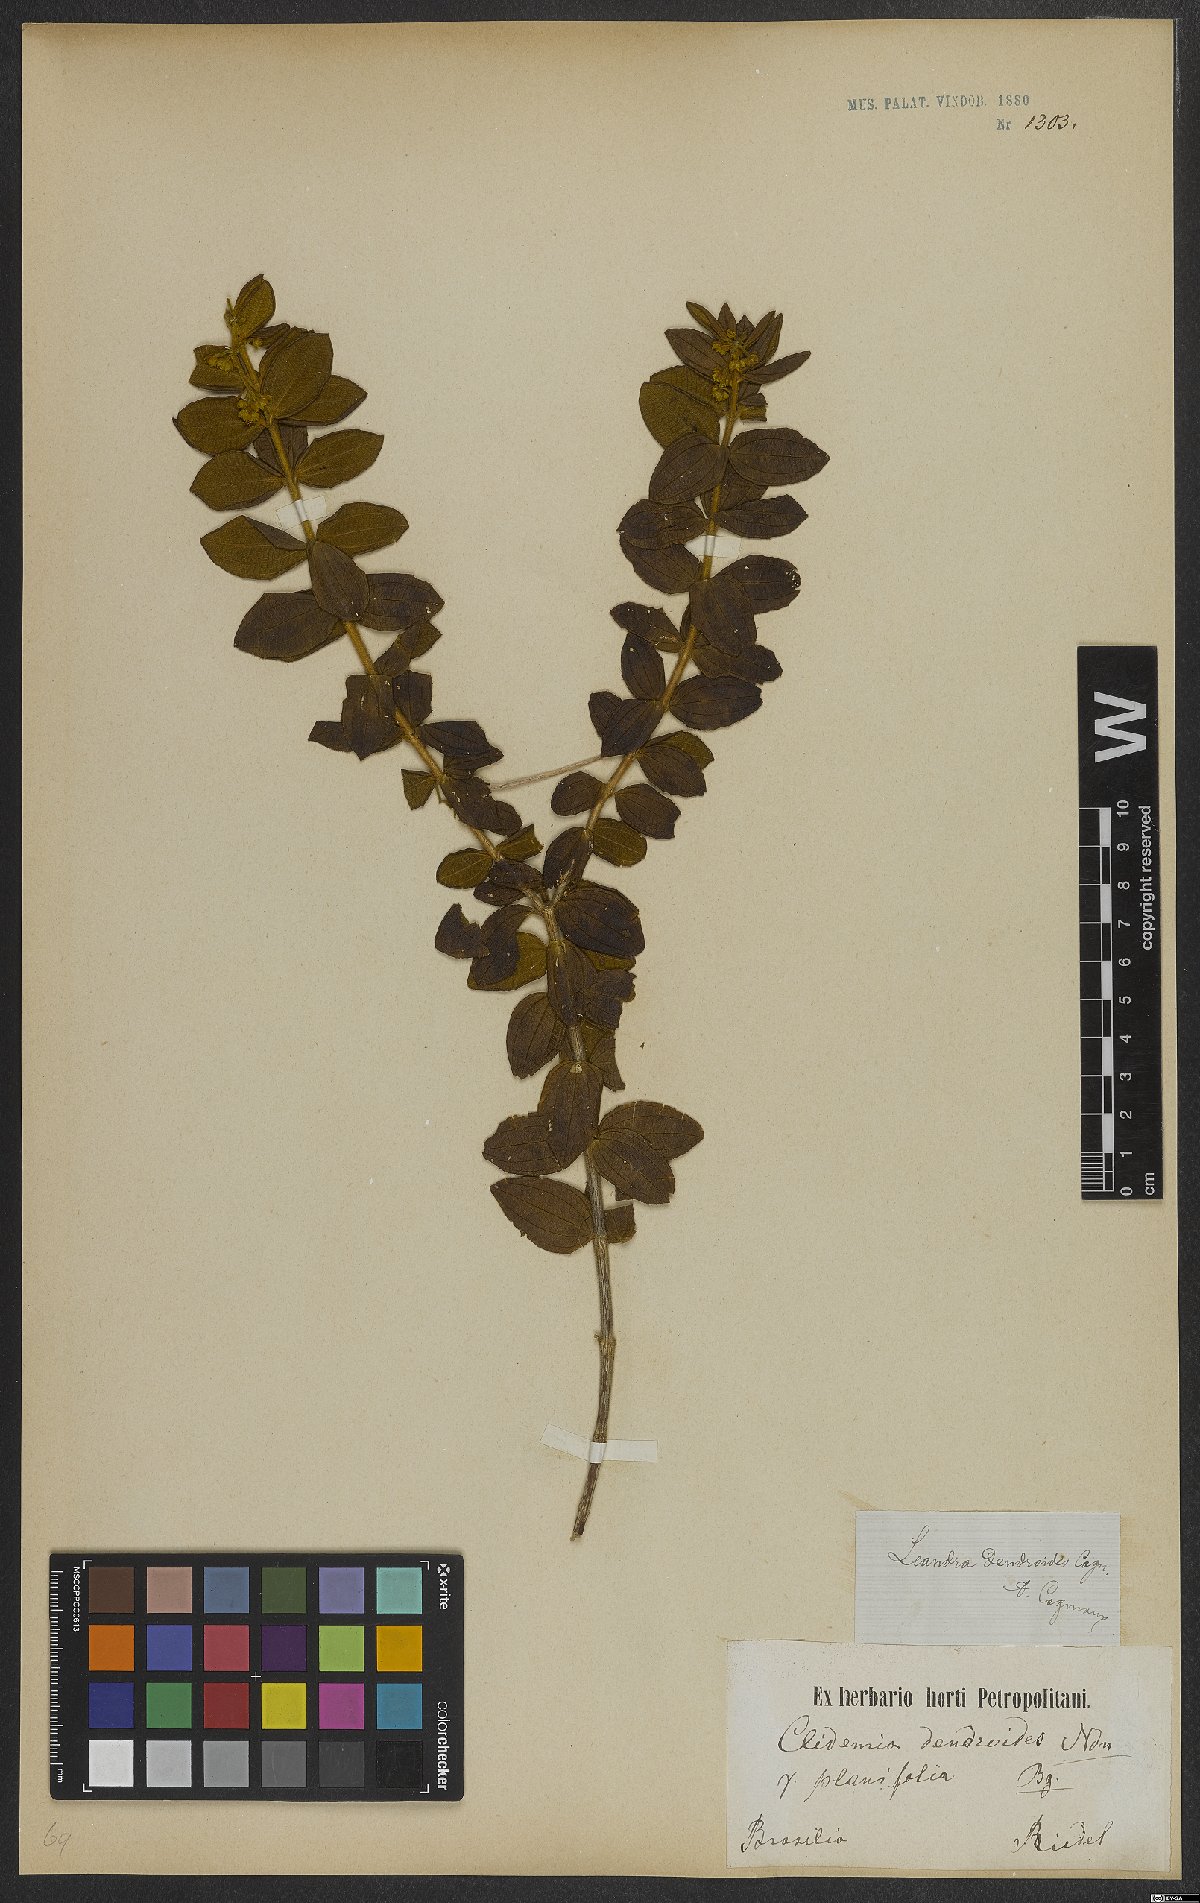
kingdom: Plantae
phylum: Tracheophyta
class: Magnoliopsida
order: Myrtales
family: Melastomataceae
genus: Miconia
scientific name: Miconia dendroides
